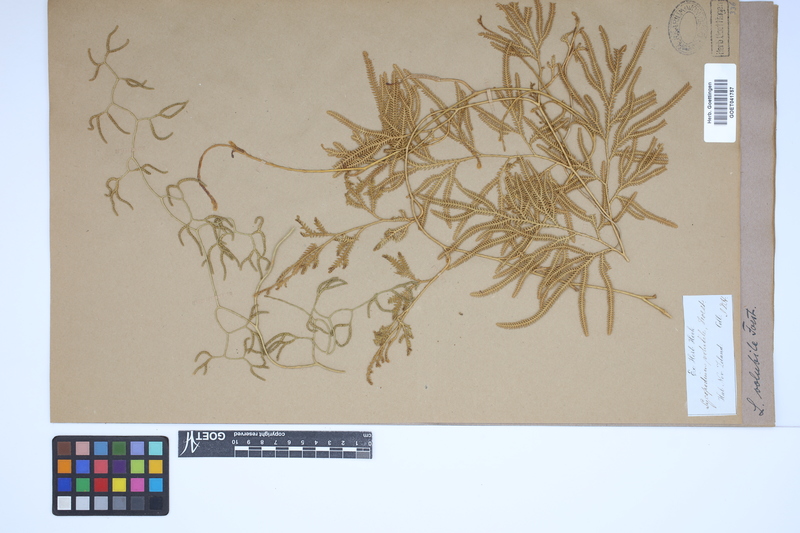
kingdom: Plantae
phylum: Tracheophyta
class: Lycopodiopsida
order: Lycopodiales
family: Lycopodiaceae
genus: Pseudodiphasium
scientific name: Pseudodiphasium volubile
